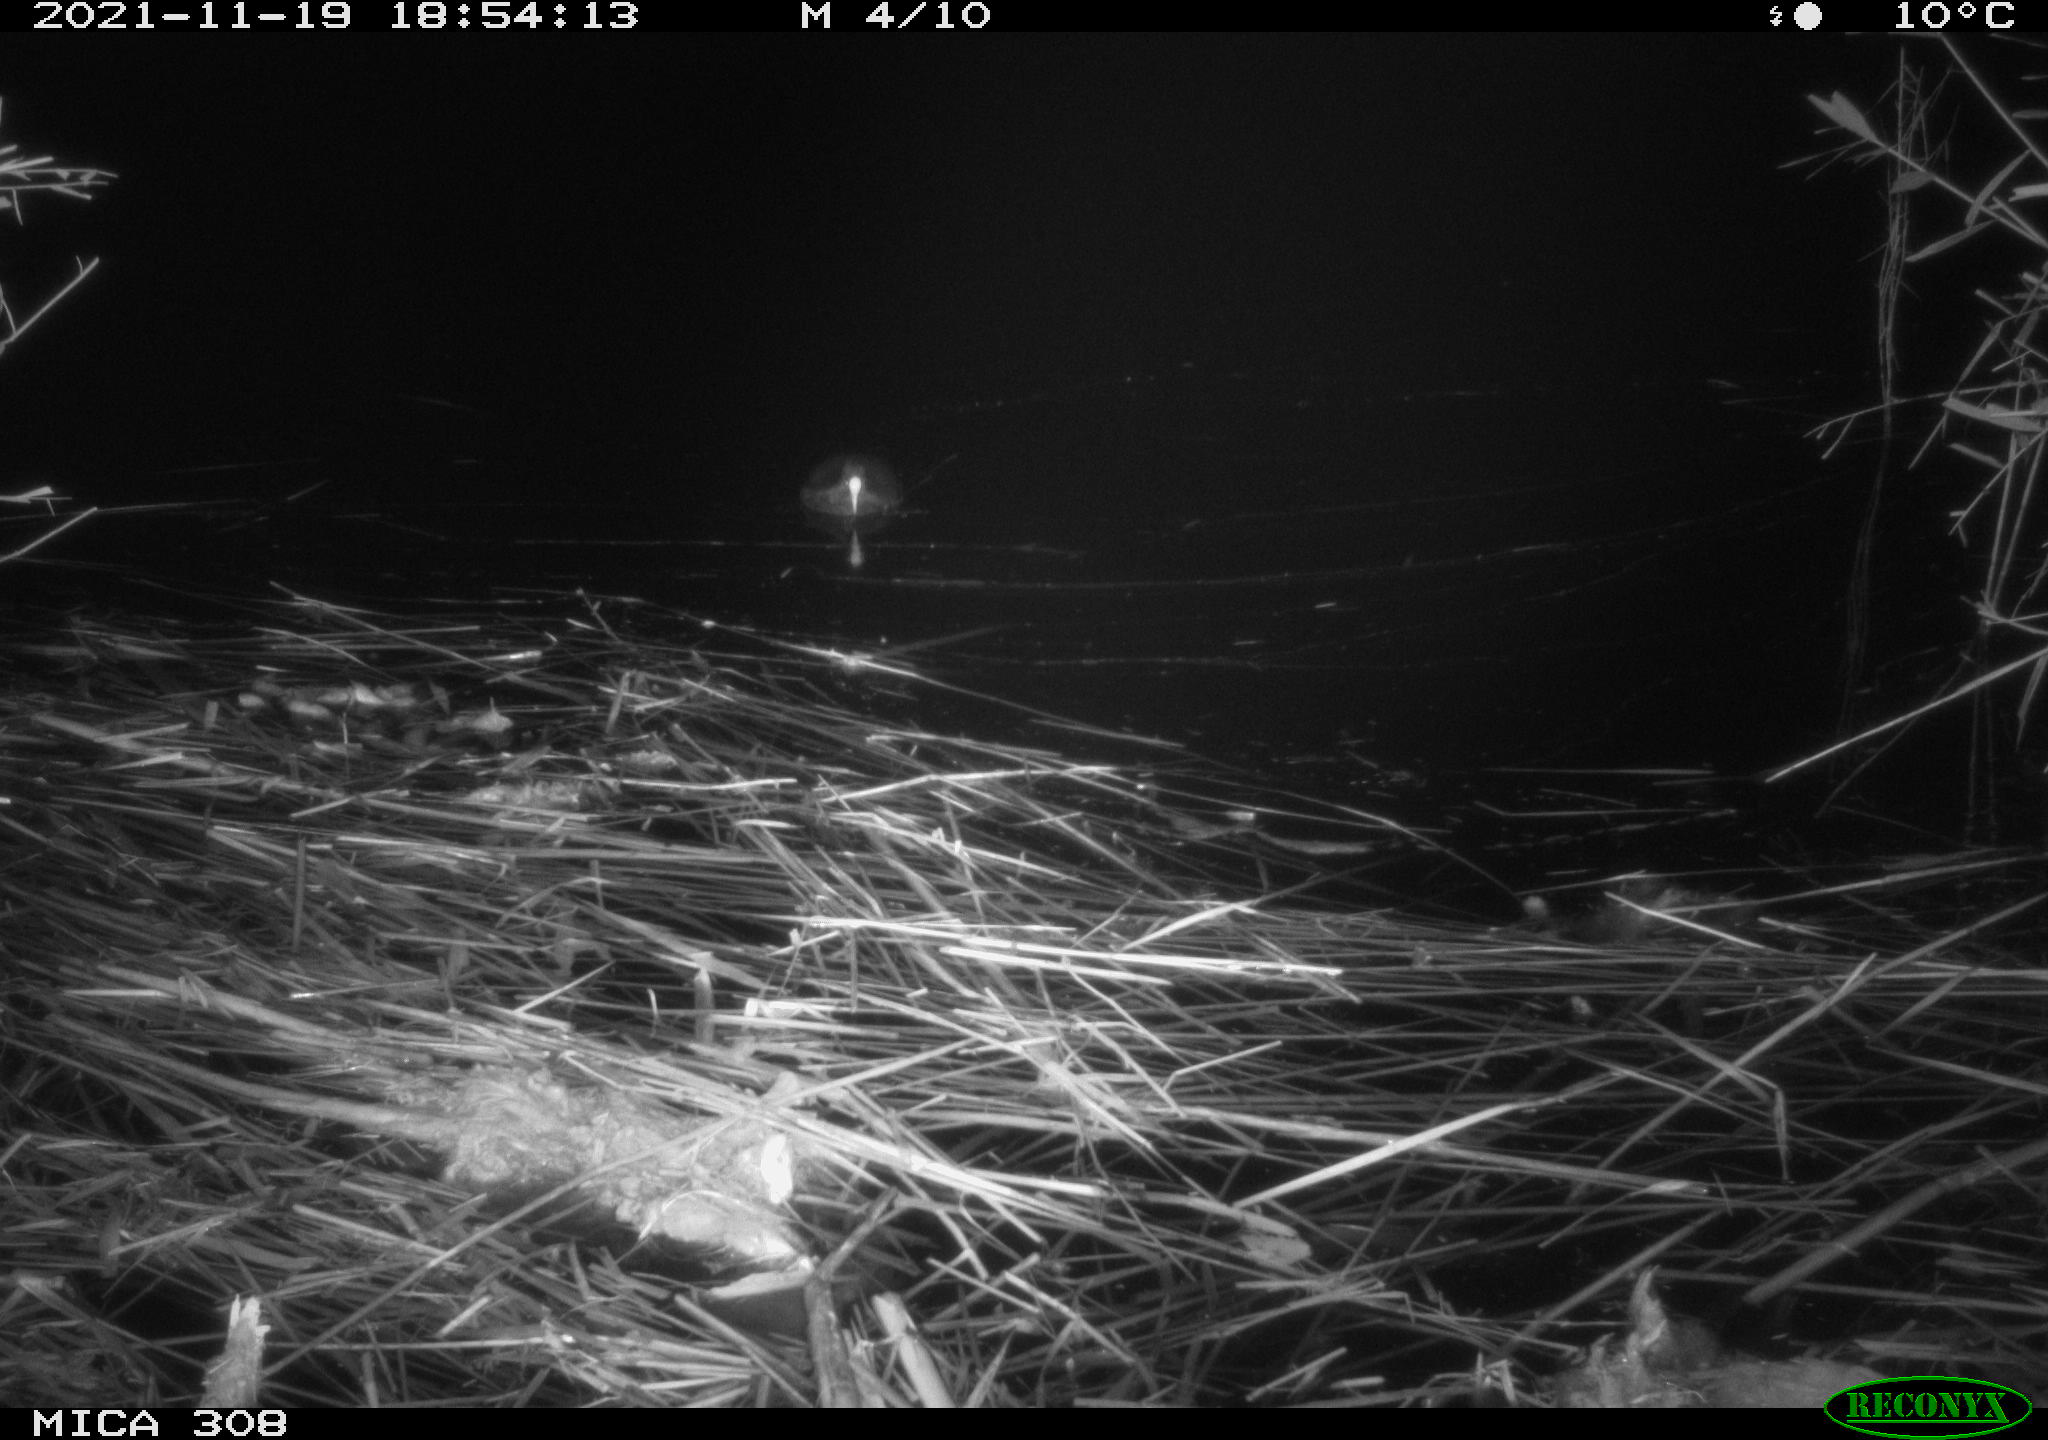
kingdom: Animalia
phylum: Chordata
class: Aves
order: Gruiformes
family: Rallidae
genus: Fulica
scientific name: Fulica atra
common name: Eurasian coot
